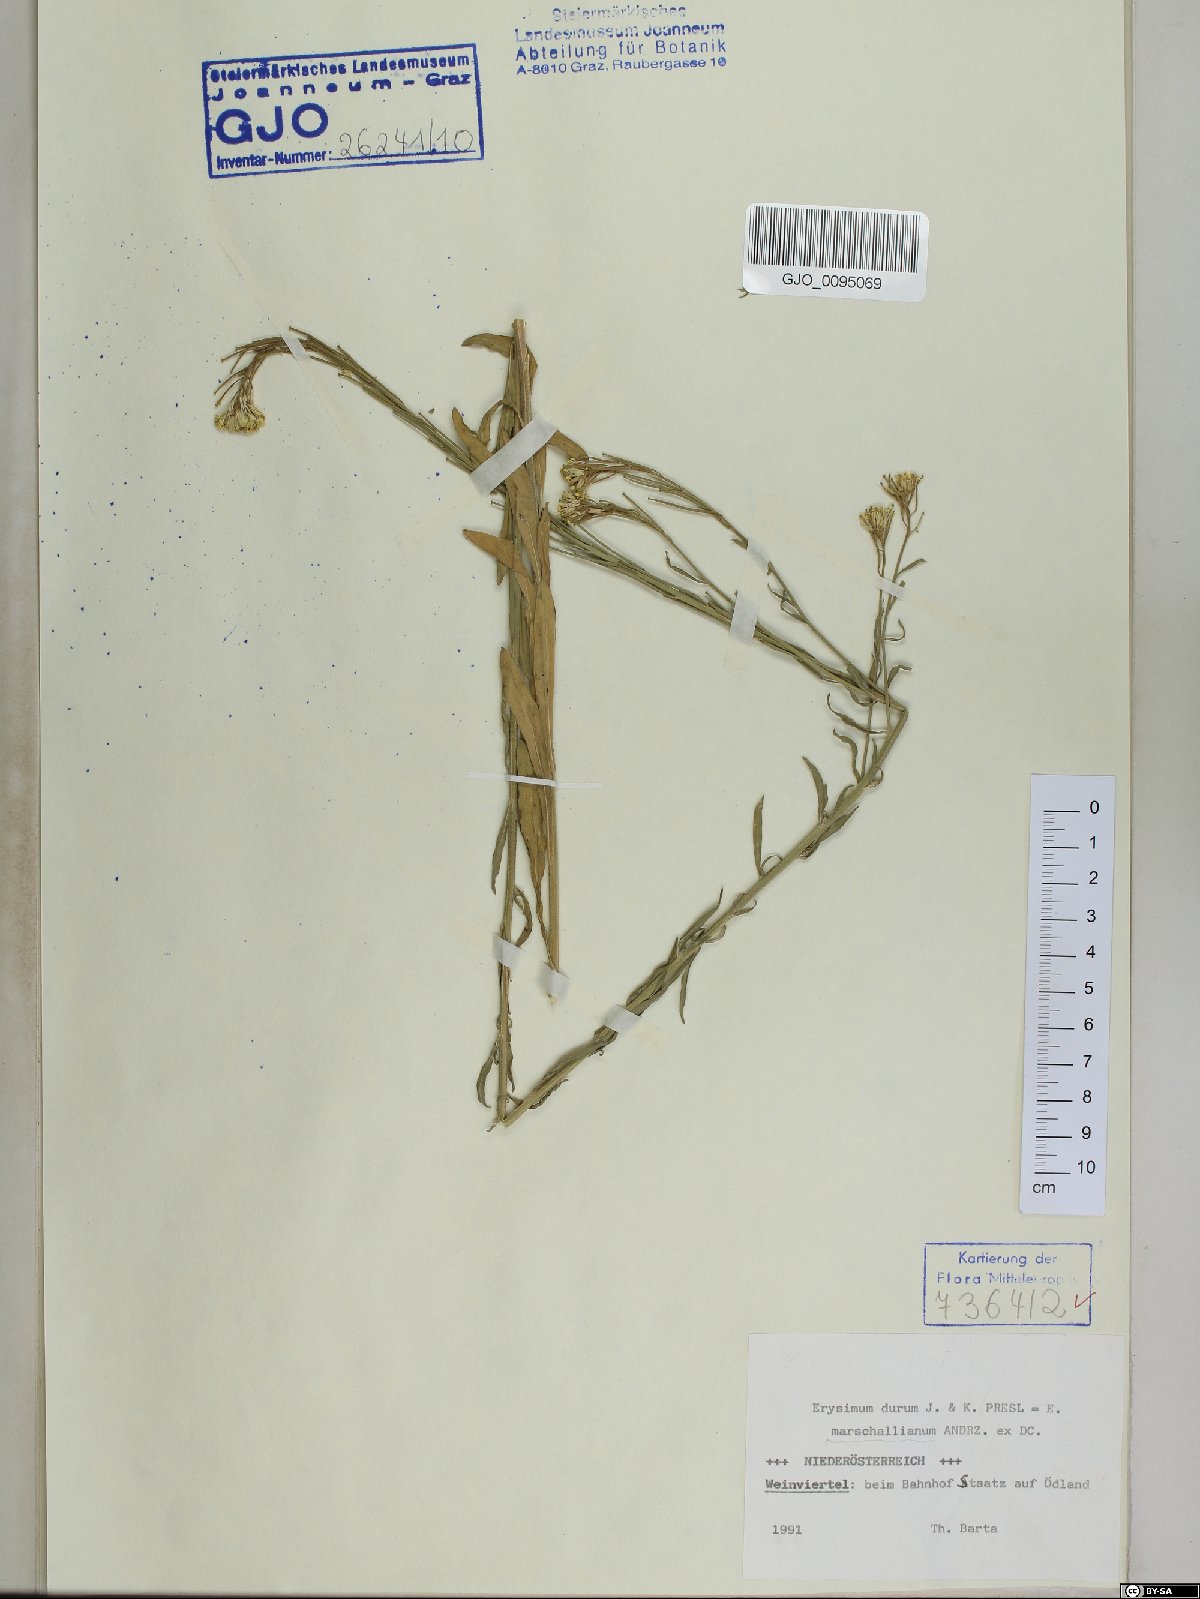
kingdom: Plantae
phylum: Tracheophyta
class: Magnoliopsida
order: Brassicales
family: Brassicaceae
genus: Erysimum
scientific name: Erysimum marschallianum
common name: Hard wallflower
